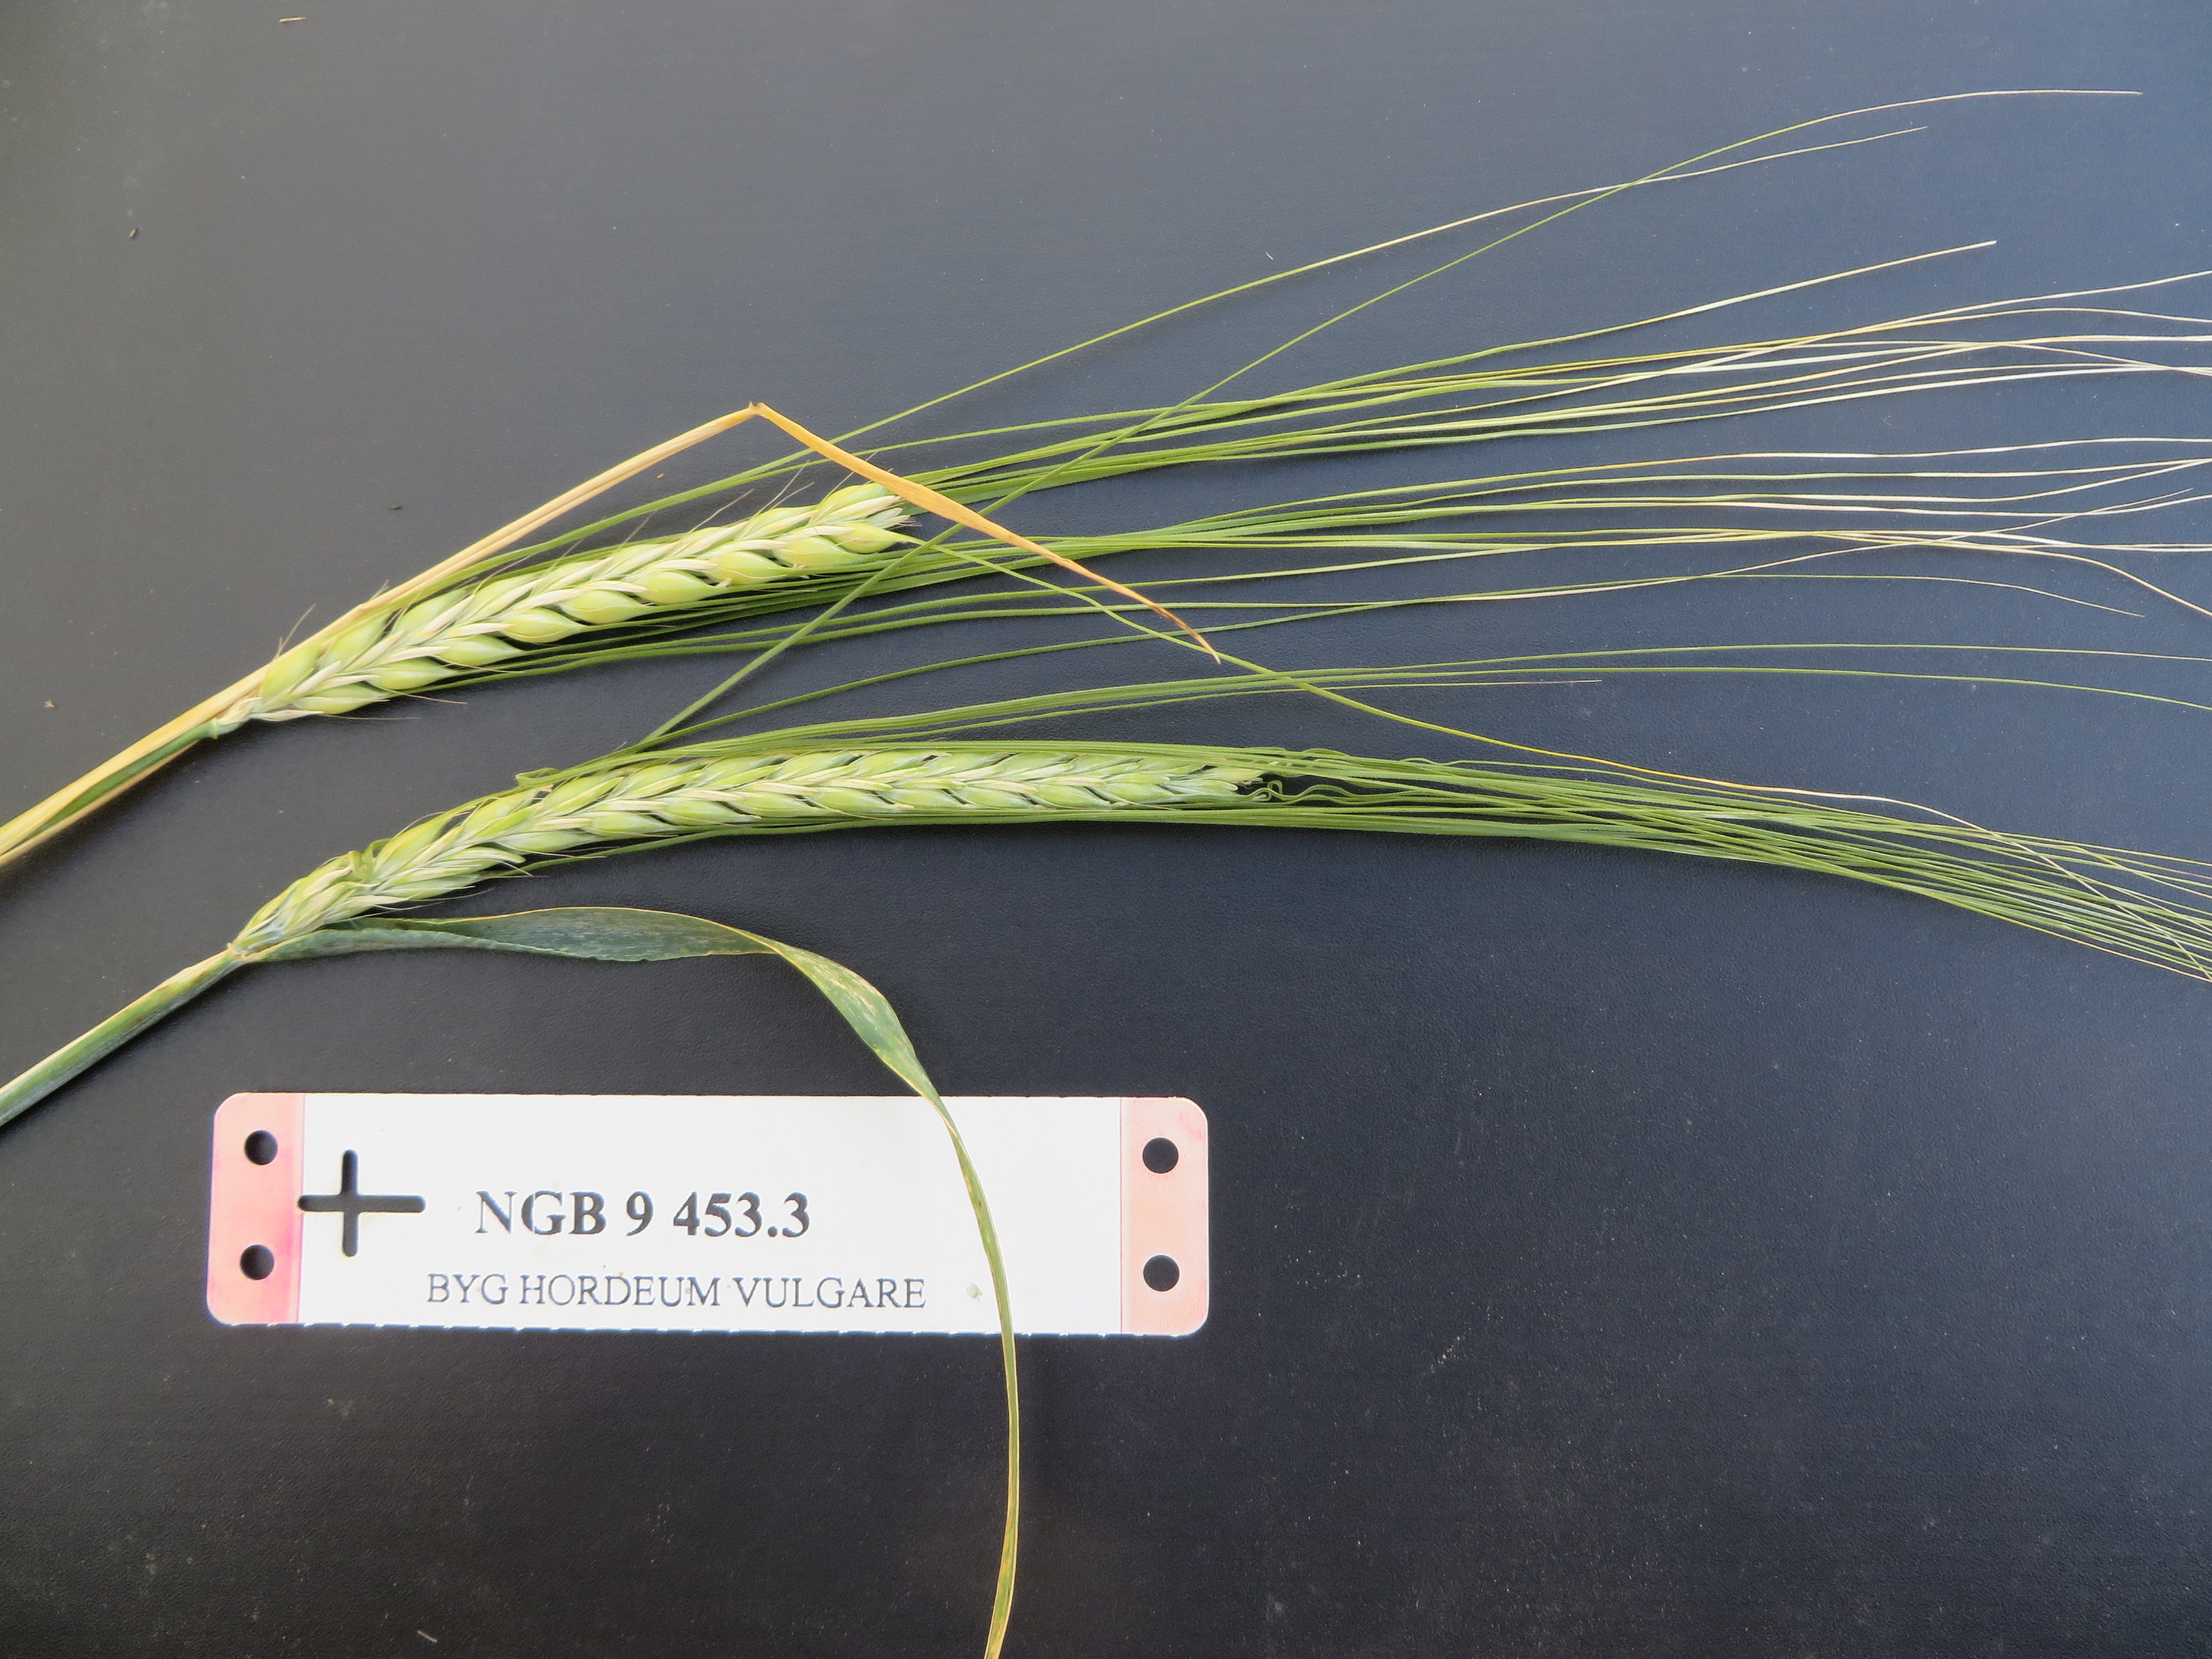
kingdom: Plantae
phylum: Tracheophyta
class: Liliopsida
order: Poales
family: Poaceae
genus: Hordeum
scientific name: Hordeum vulgare
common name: Common barley
